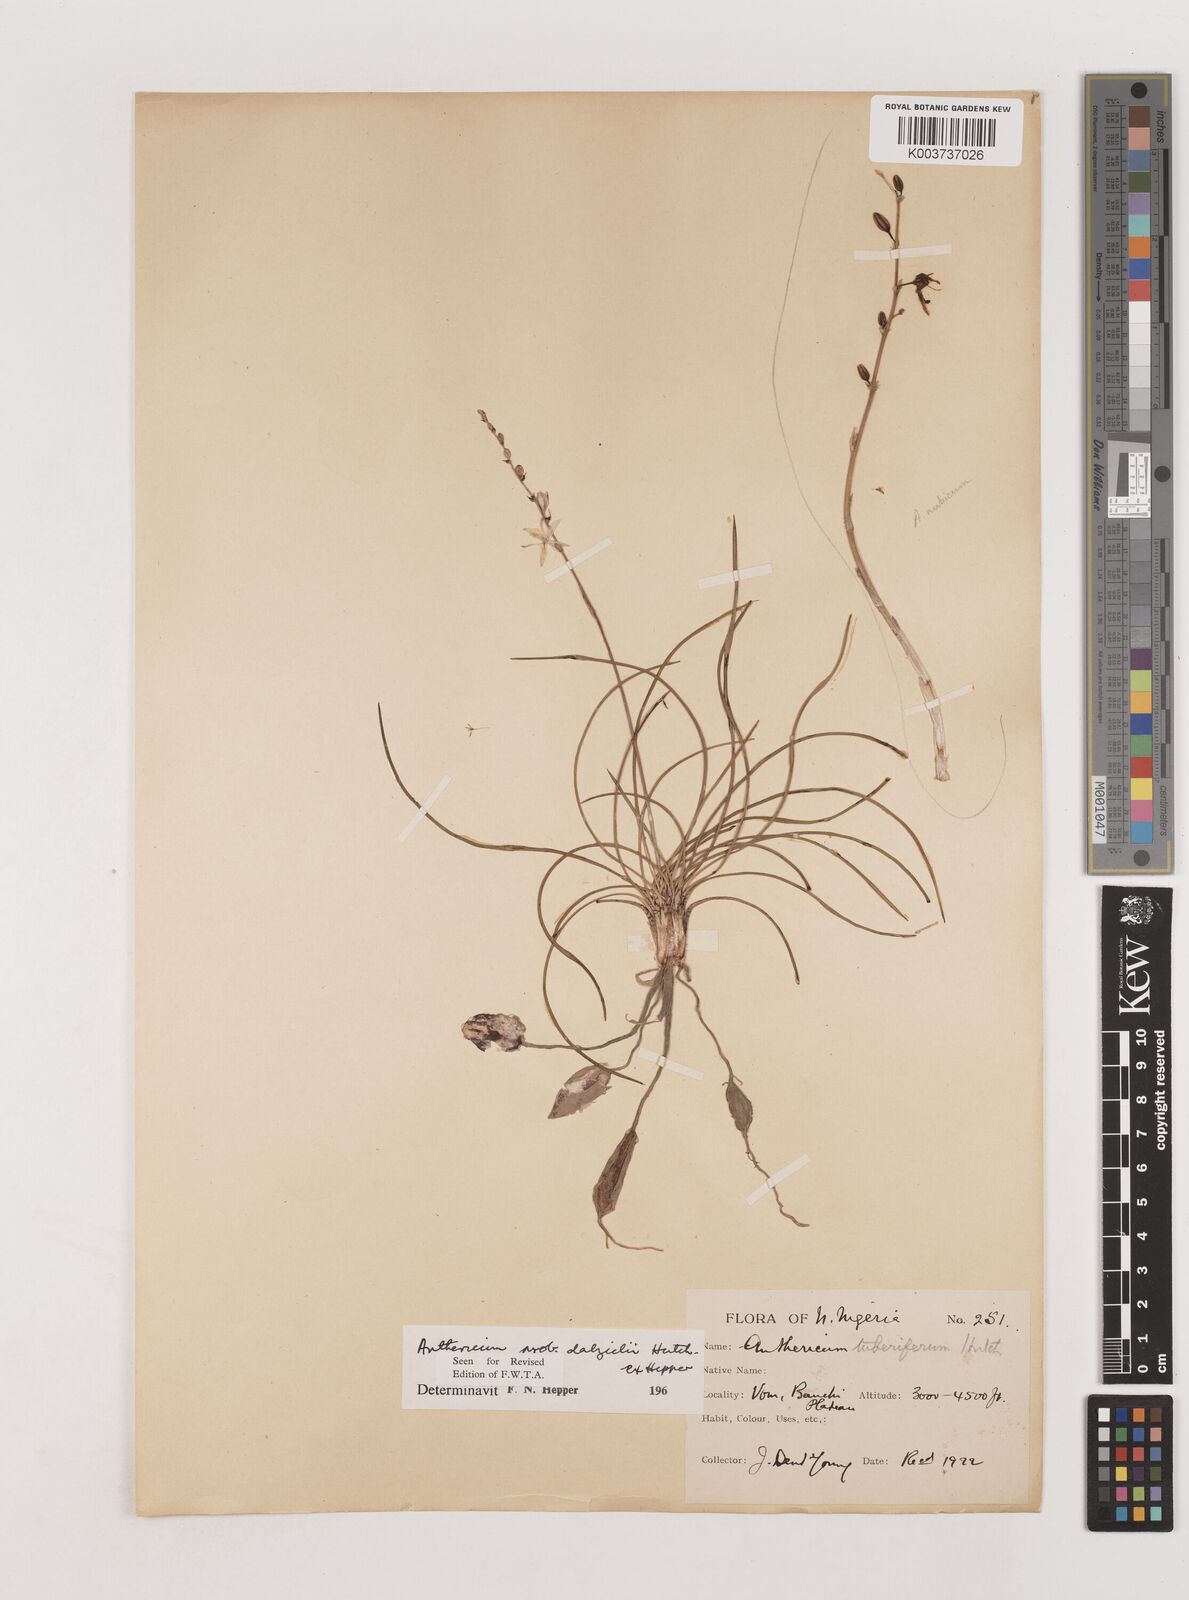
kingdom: Plantae
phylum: Tracheophyta
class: Liliopsida
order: Asparagales
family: Asparagaceae
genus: Chlorophytum
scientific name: Chlorophytum dalzielii
